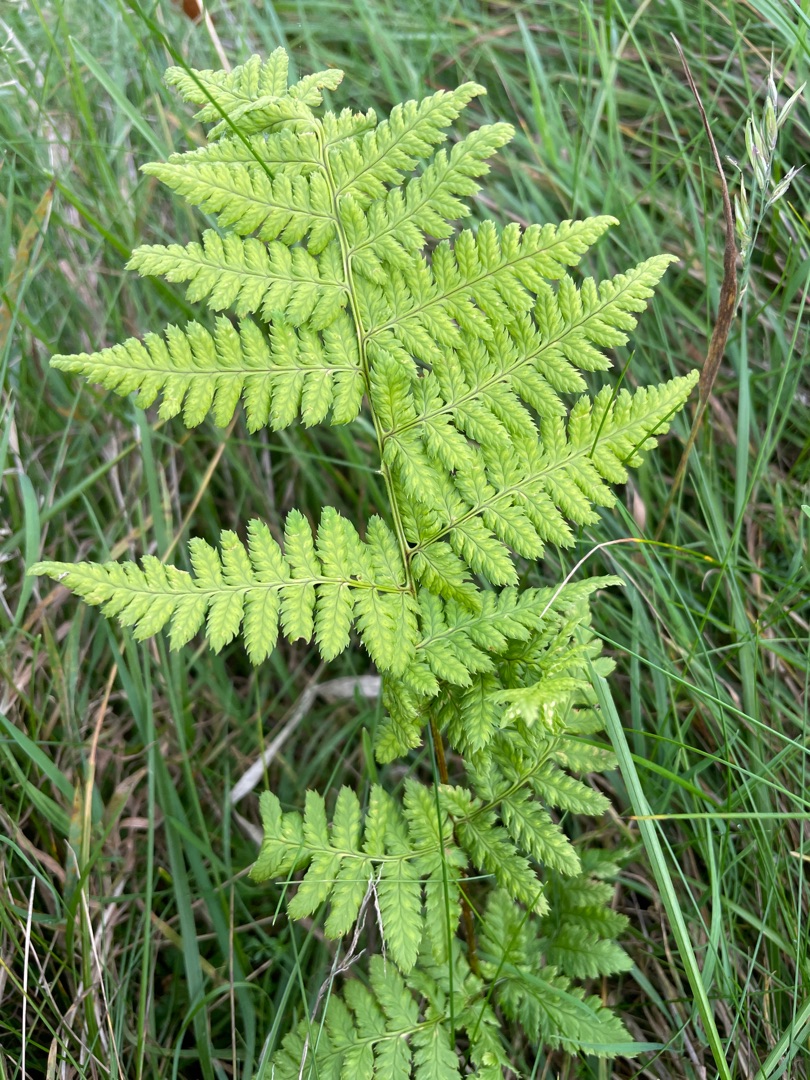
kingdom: Plantae
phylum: Tracheophyta
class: Polypodiopsida
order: Polypodiales
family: Dryopteridaceae
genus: Dryopteris
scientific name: Dryopteris dilatata
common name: Bredbladet mangeløv
